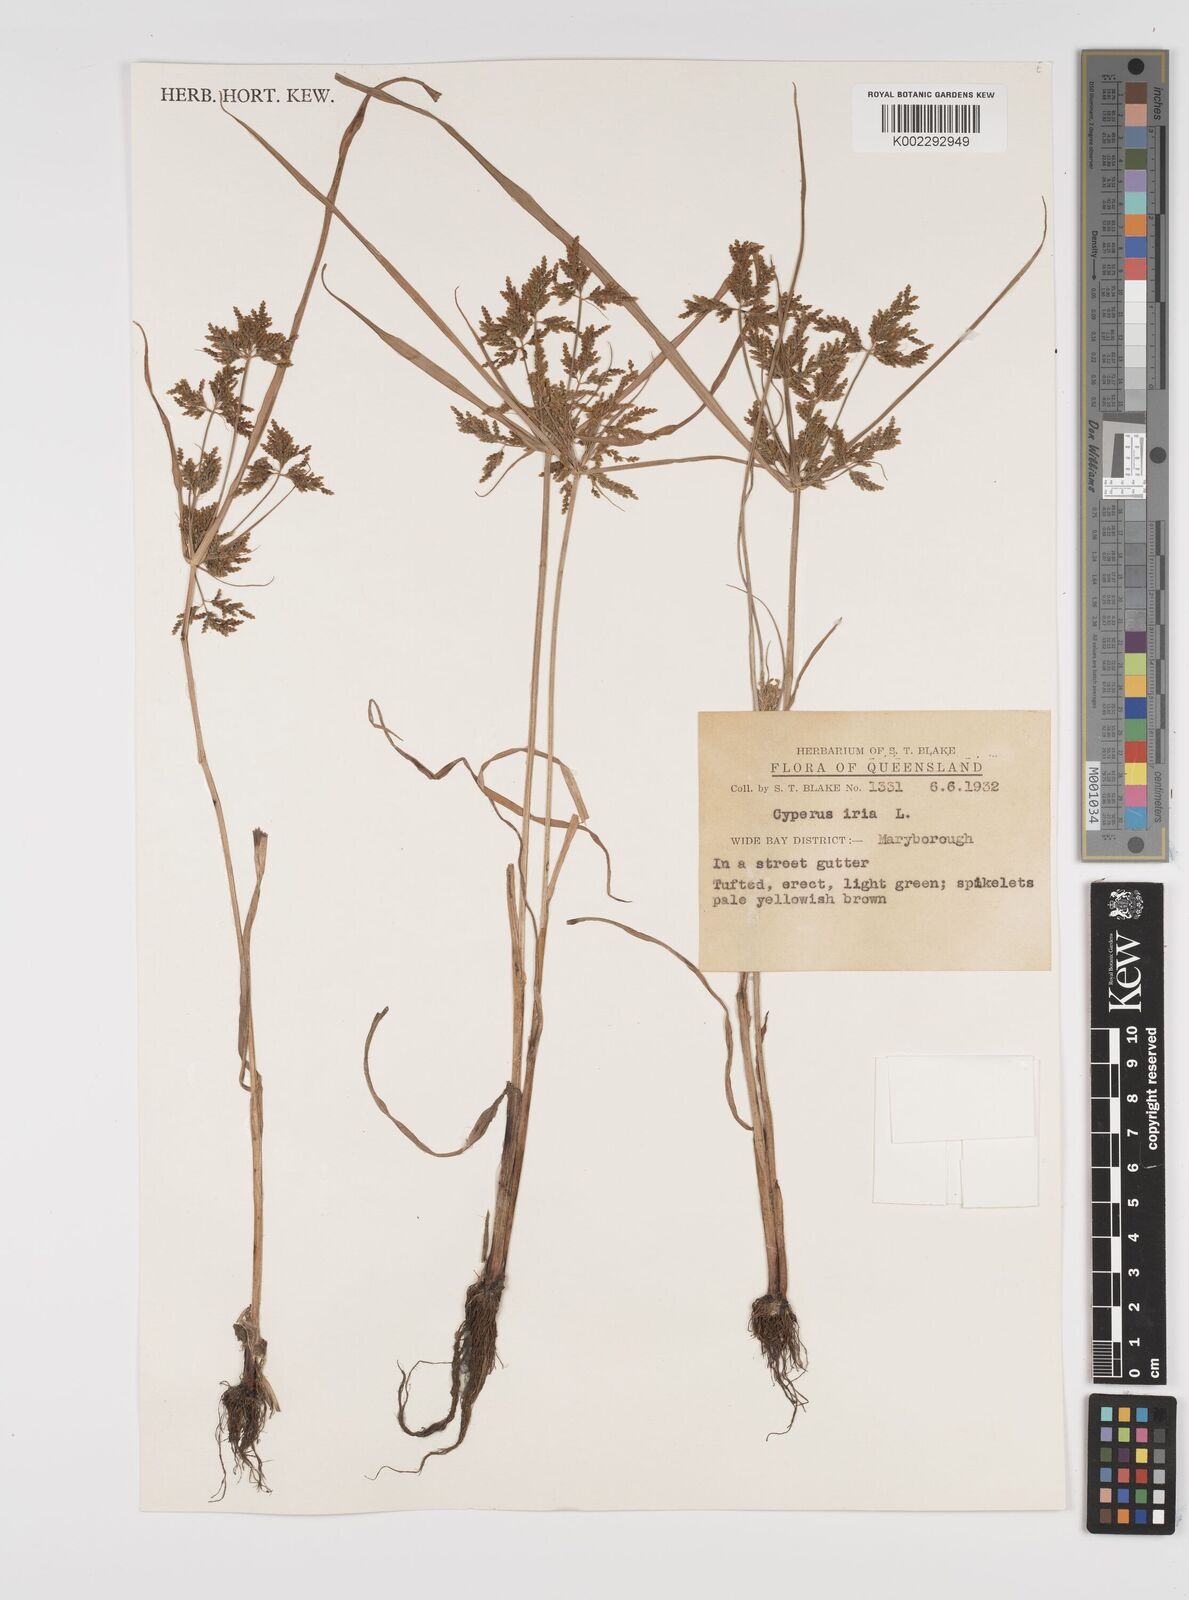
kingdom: Plantae
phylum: Tracheophyta
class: Liliopsida
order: Poales
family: Cyperaceae
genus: Cyperus
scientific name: Cyperus iria
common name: Ricefield flatsedge
